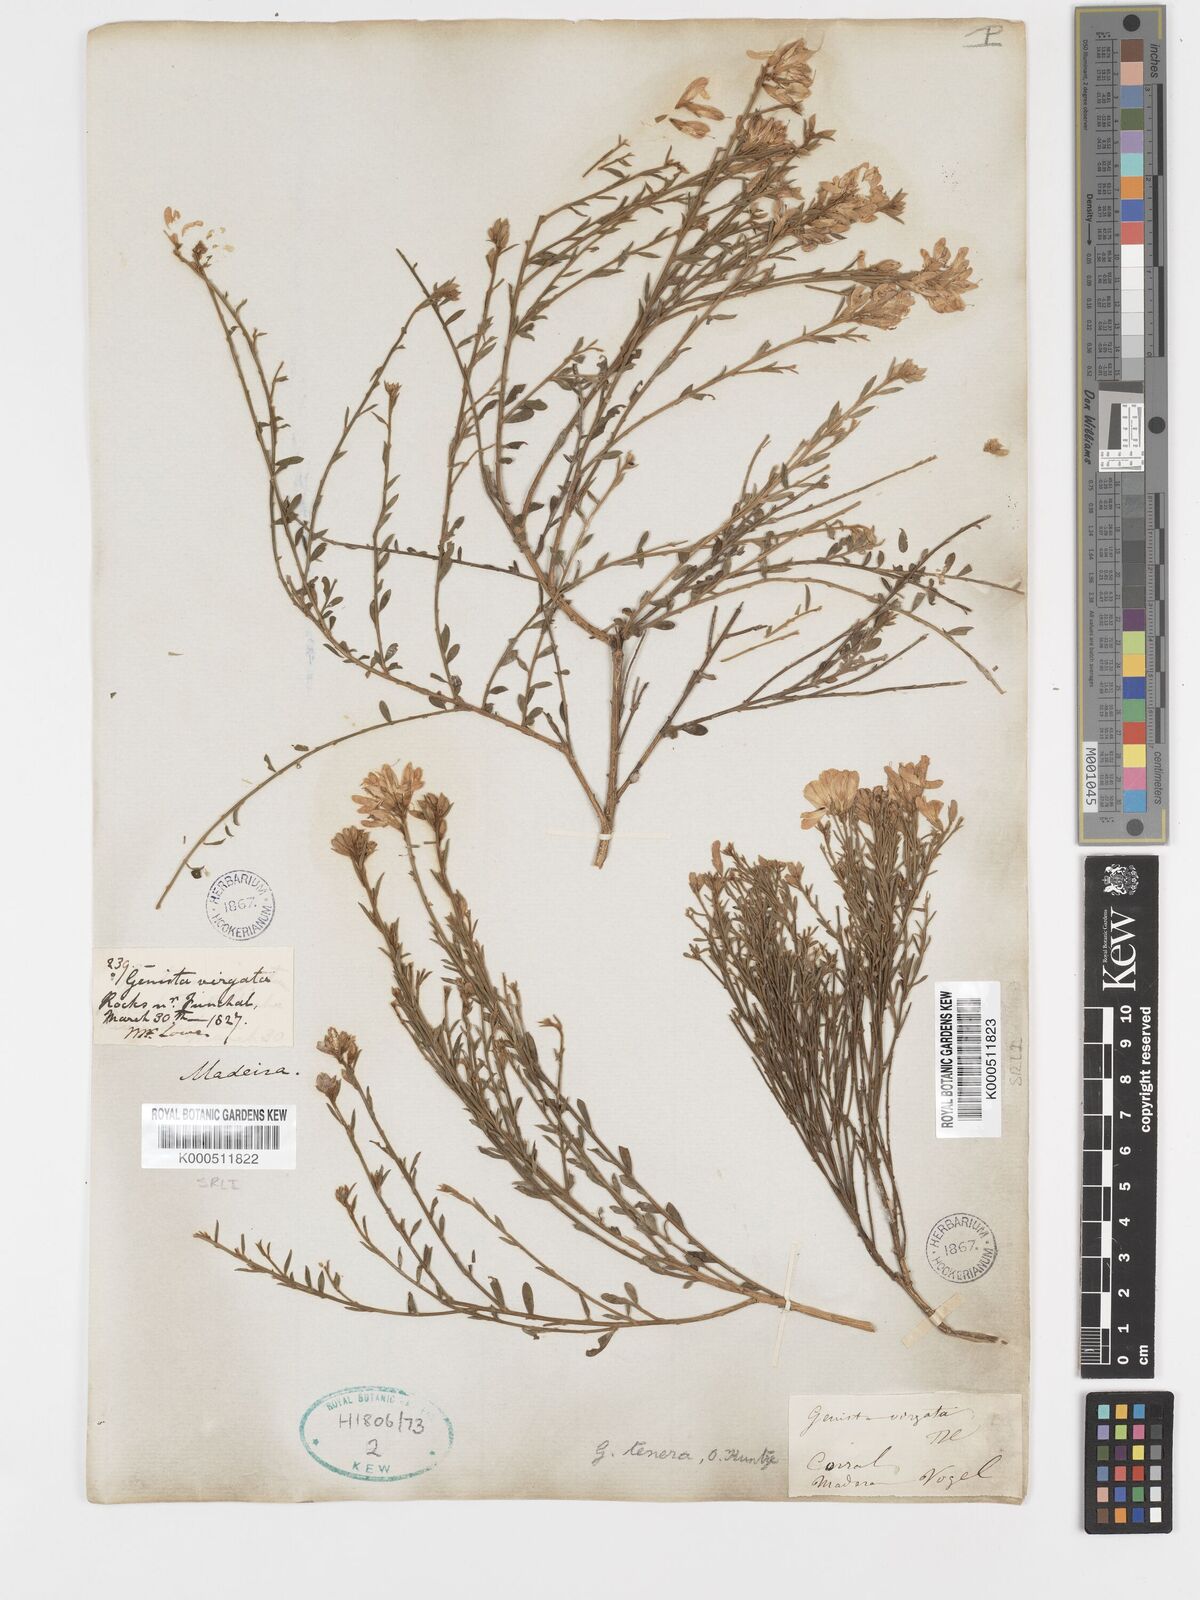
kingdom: Plantae
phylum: Tracheophyta
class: Magnoliopsida
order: Fabales
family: Fabaceae
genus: Genista
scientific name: Genista tenera
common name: Madeira broom
